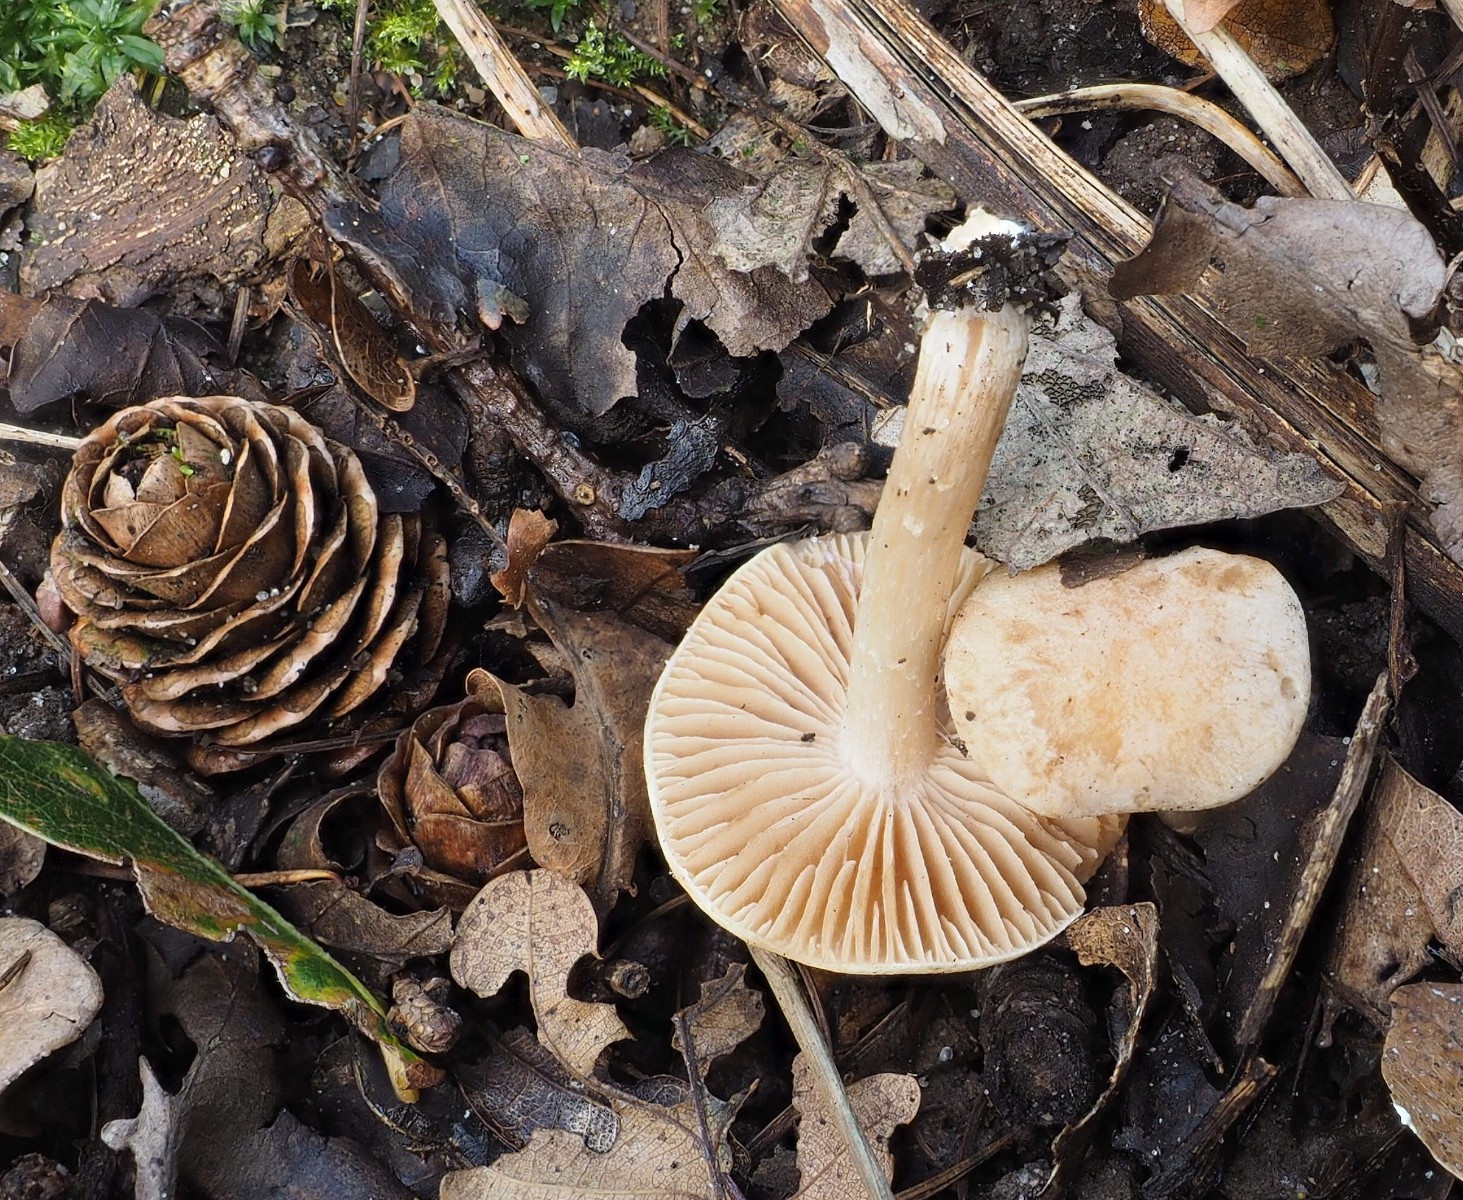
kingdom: Fungi
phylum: Basidiomycota
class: Agaricomycetes
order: Agaricales
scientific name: Agaricales
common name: champignonordenen
